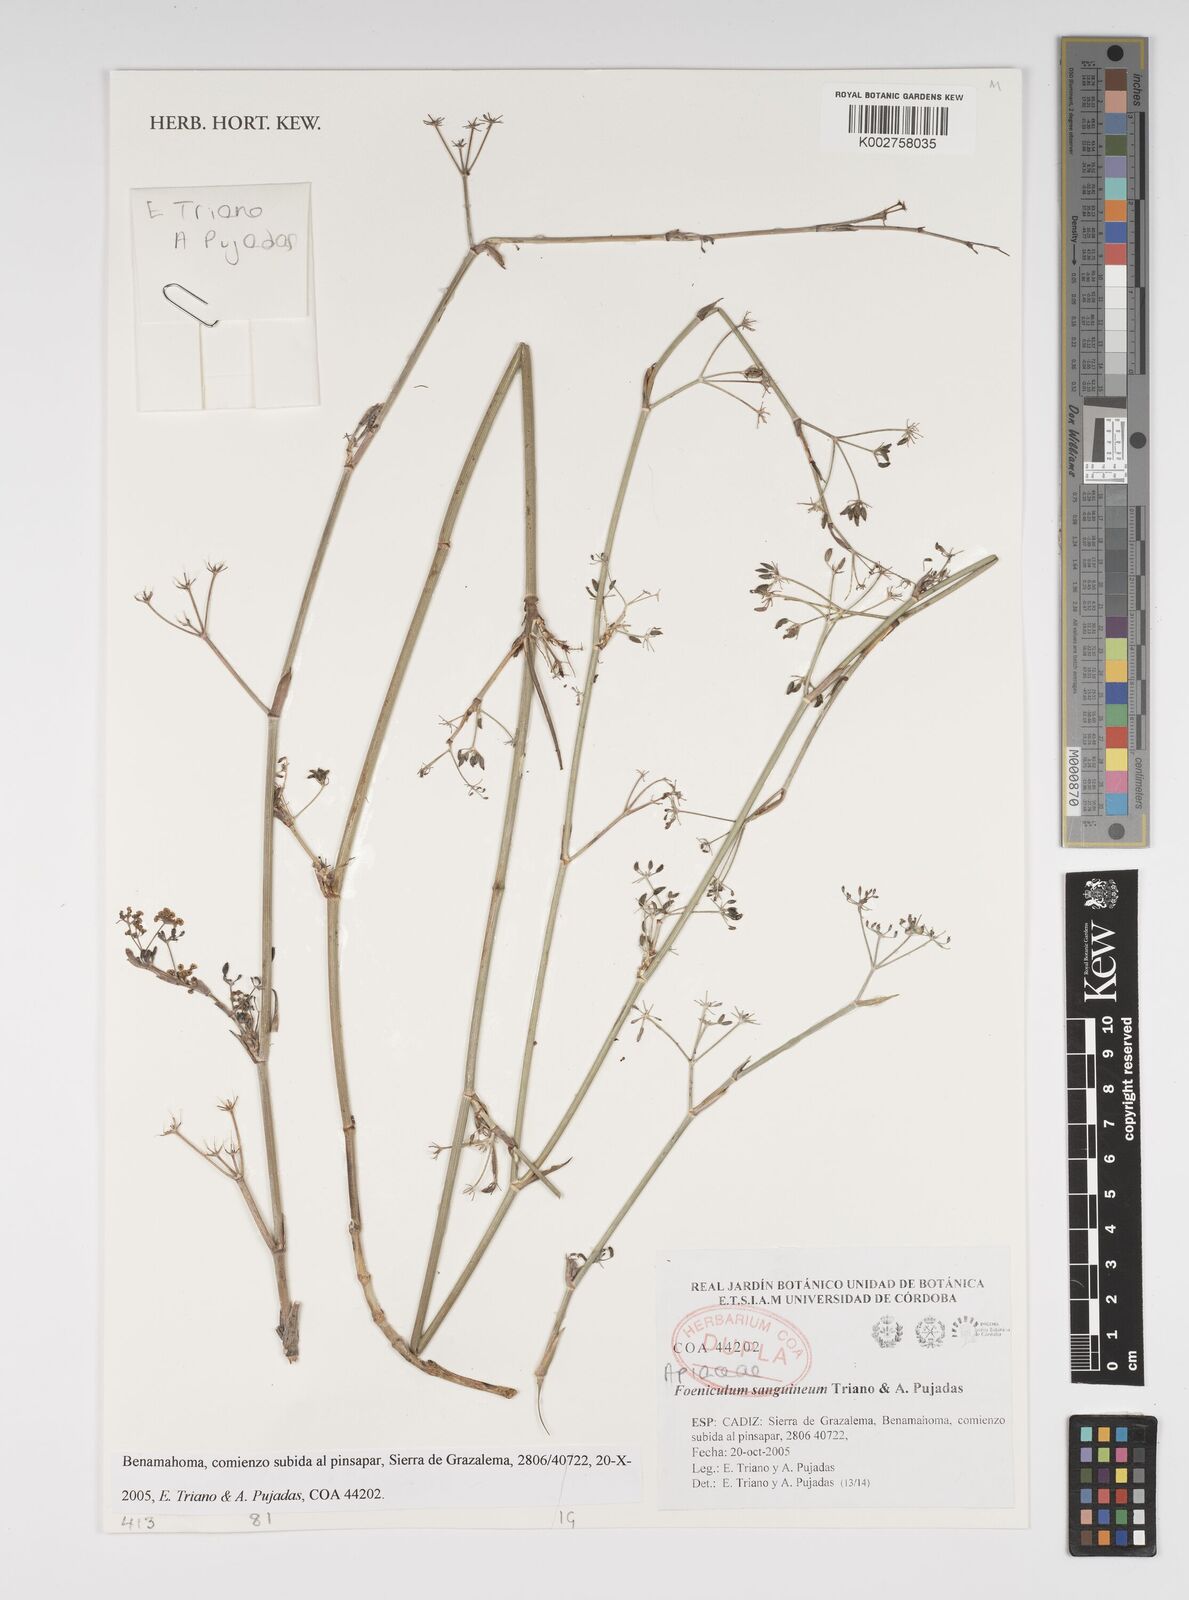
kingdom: Plantae
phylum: Tracheophyta
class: Magnoliopsida
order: Apiales
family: Apiaceae
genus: Anethum
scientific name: Anethum sanguineum
